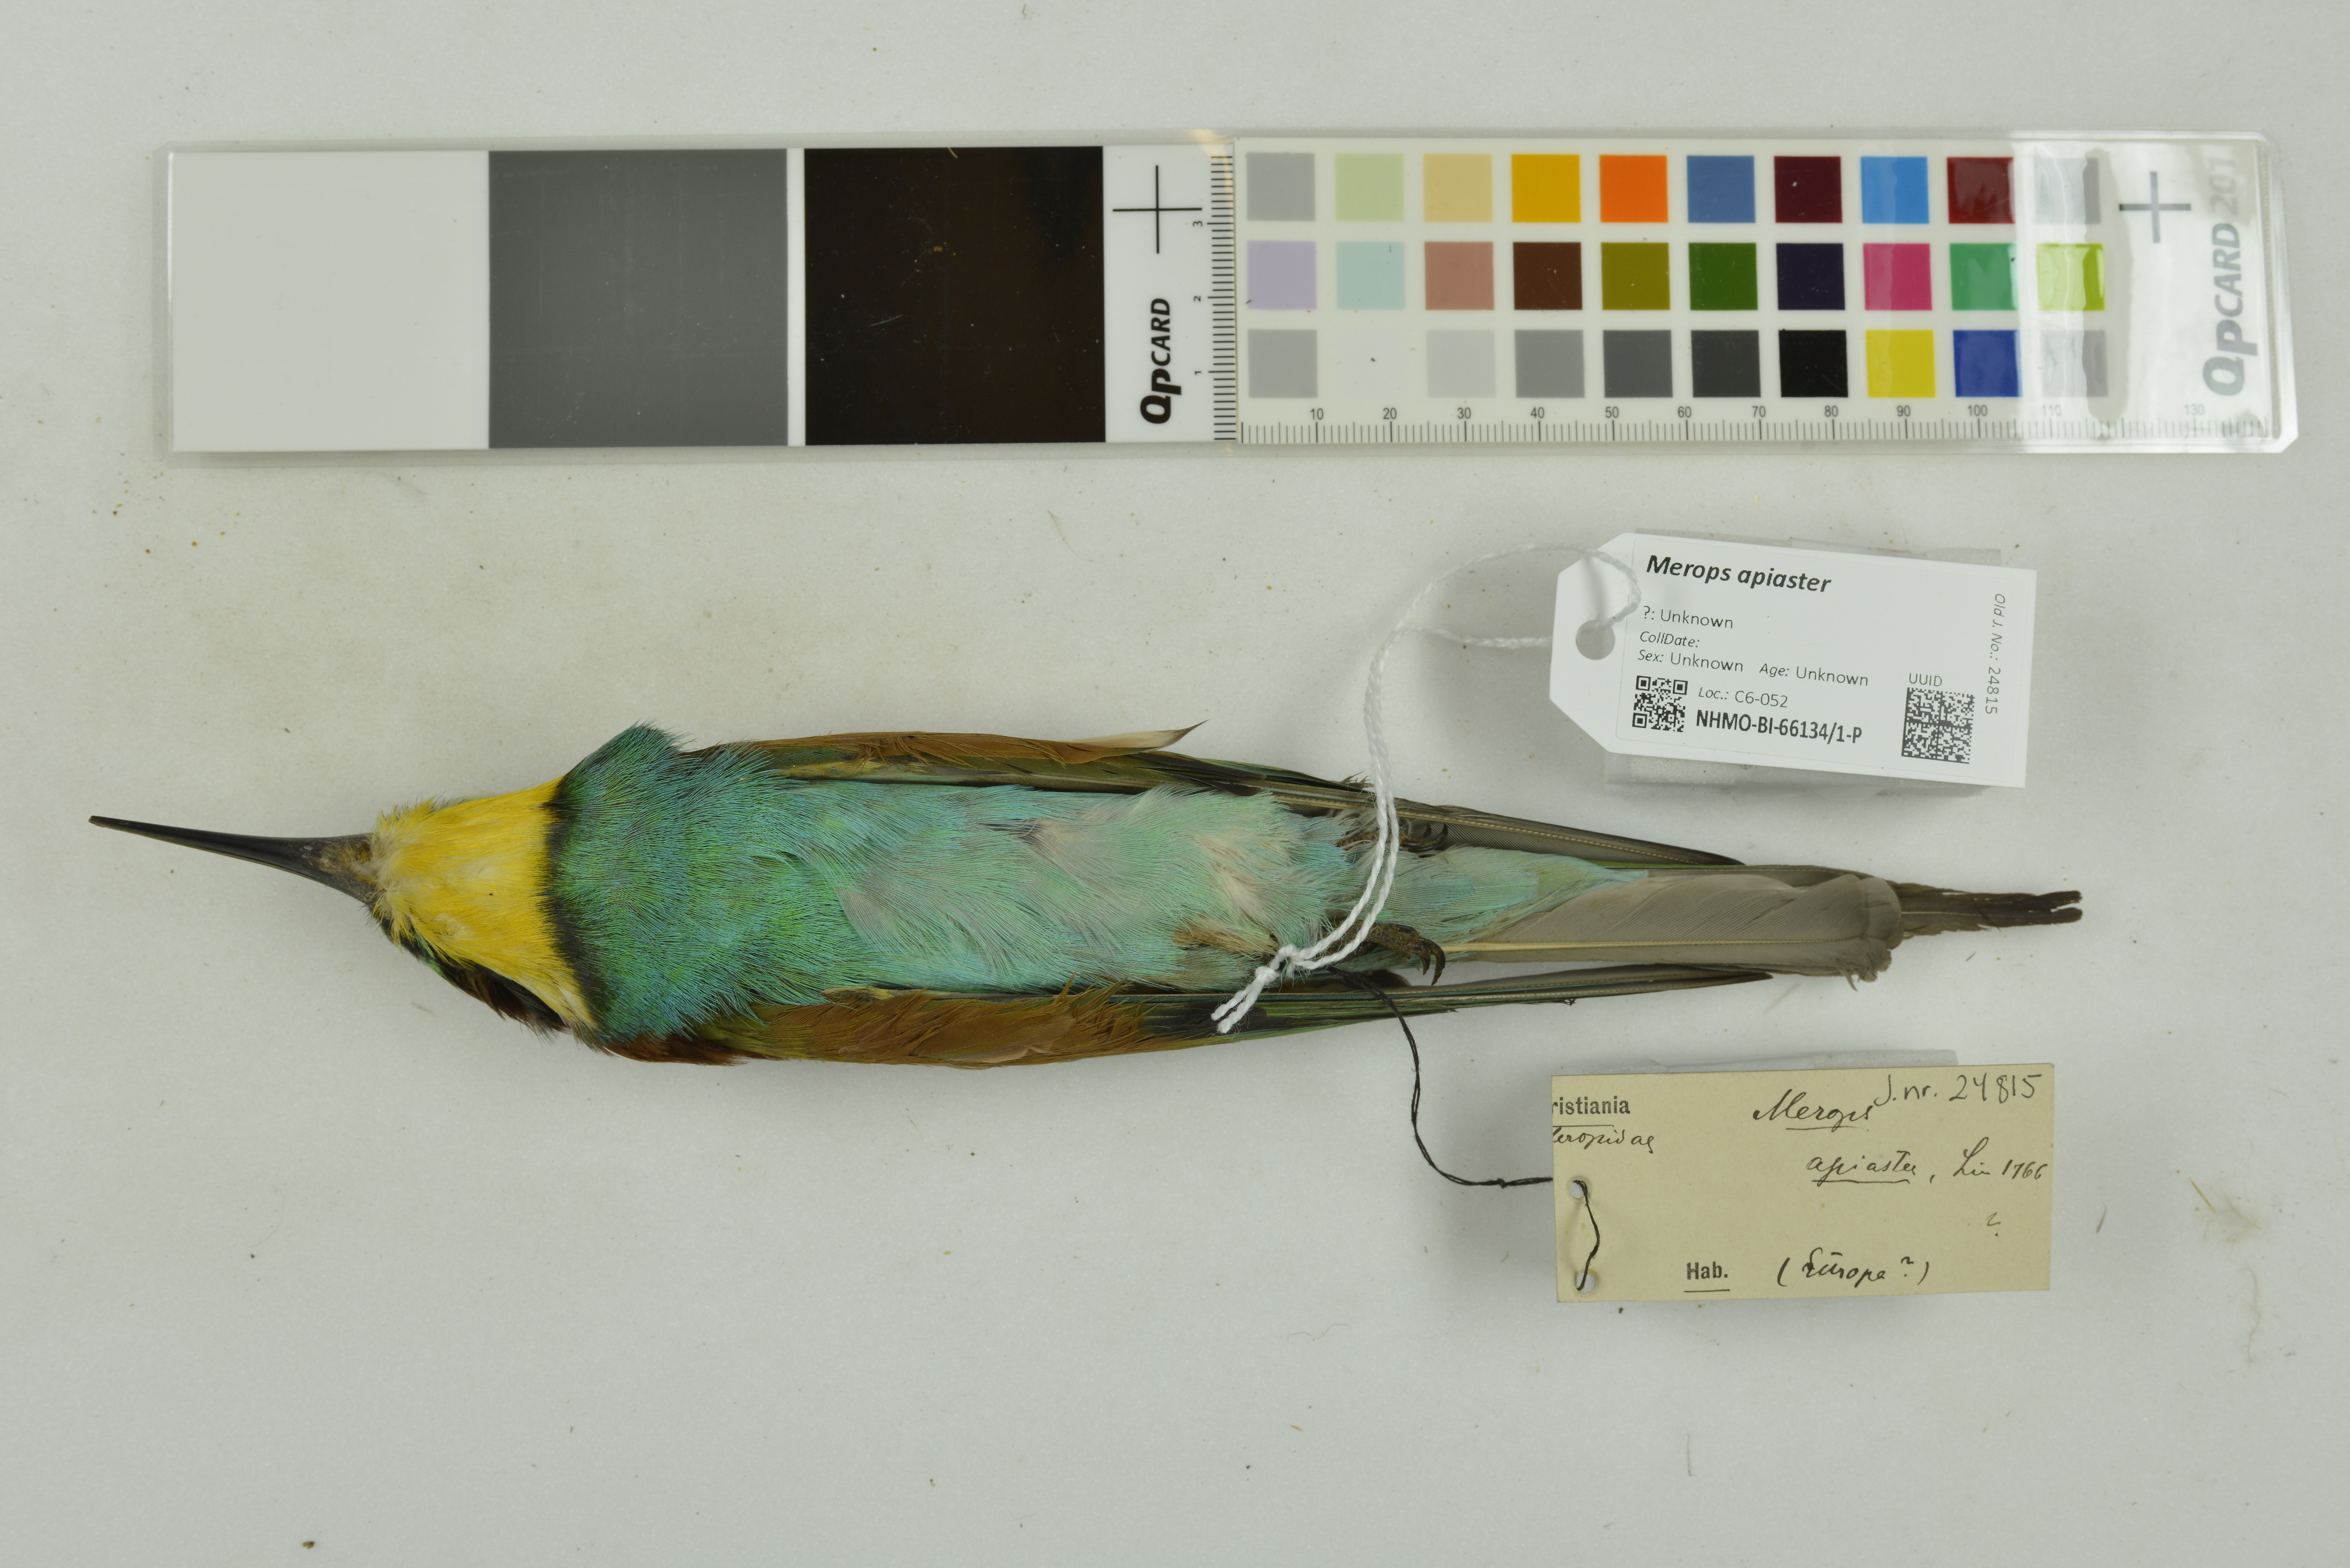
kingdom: Animalia
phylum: Chordata
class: Aves
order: Coraciiformes
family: Meropidae
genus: Merops
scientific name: Merops apiaster
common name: European bee-eater
